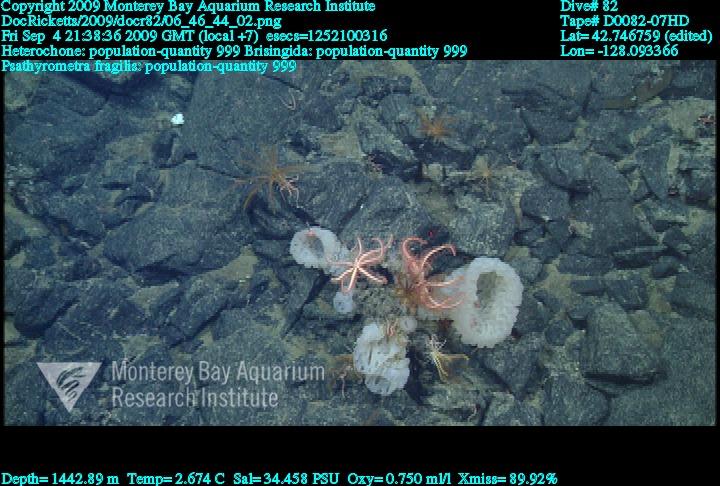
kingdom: Animalia
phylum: Porifera
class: Hexactinellida
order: Sceptrulophora
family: Aphrocallistidae
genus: Heterochone
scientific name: Heterochone
